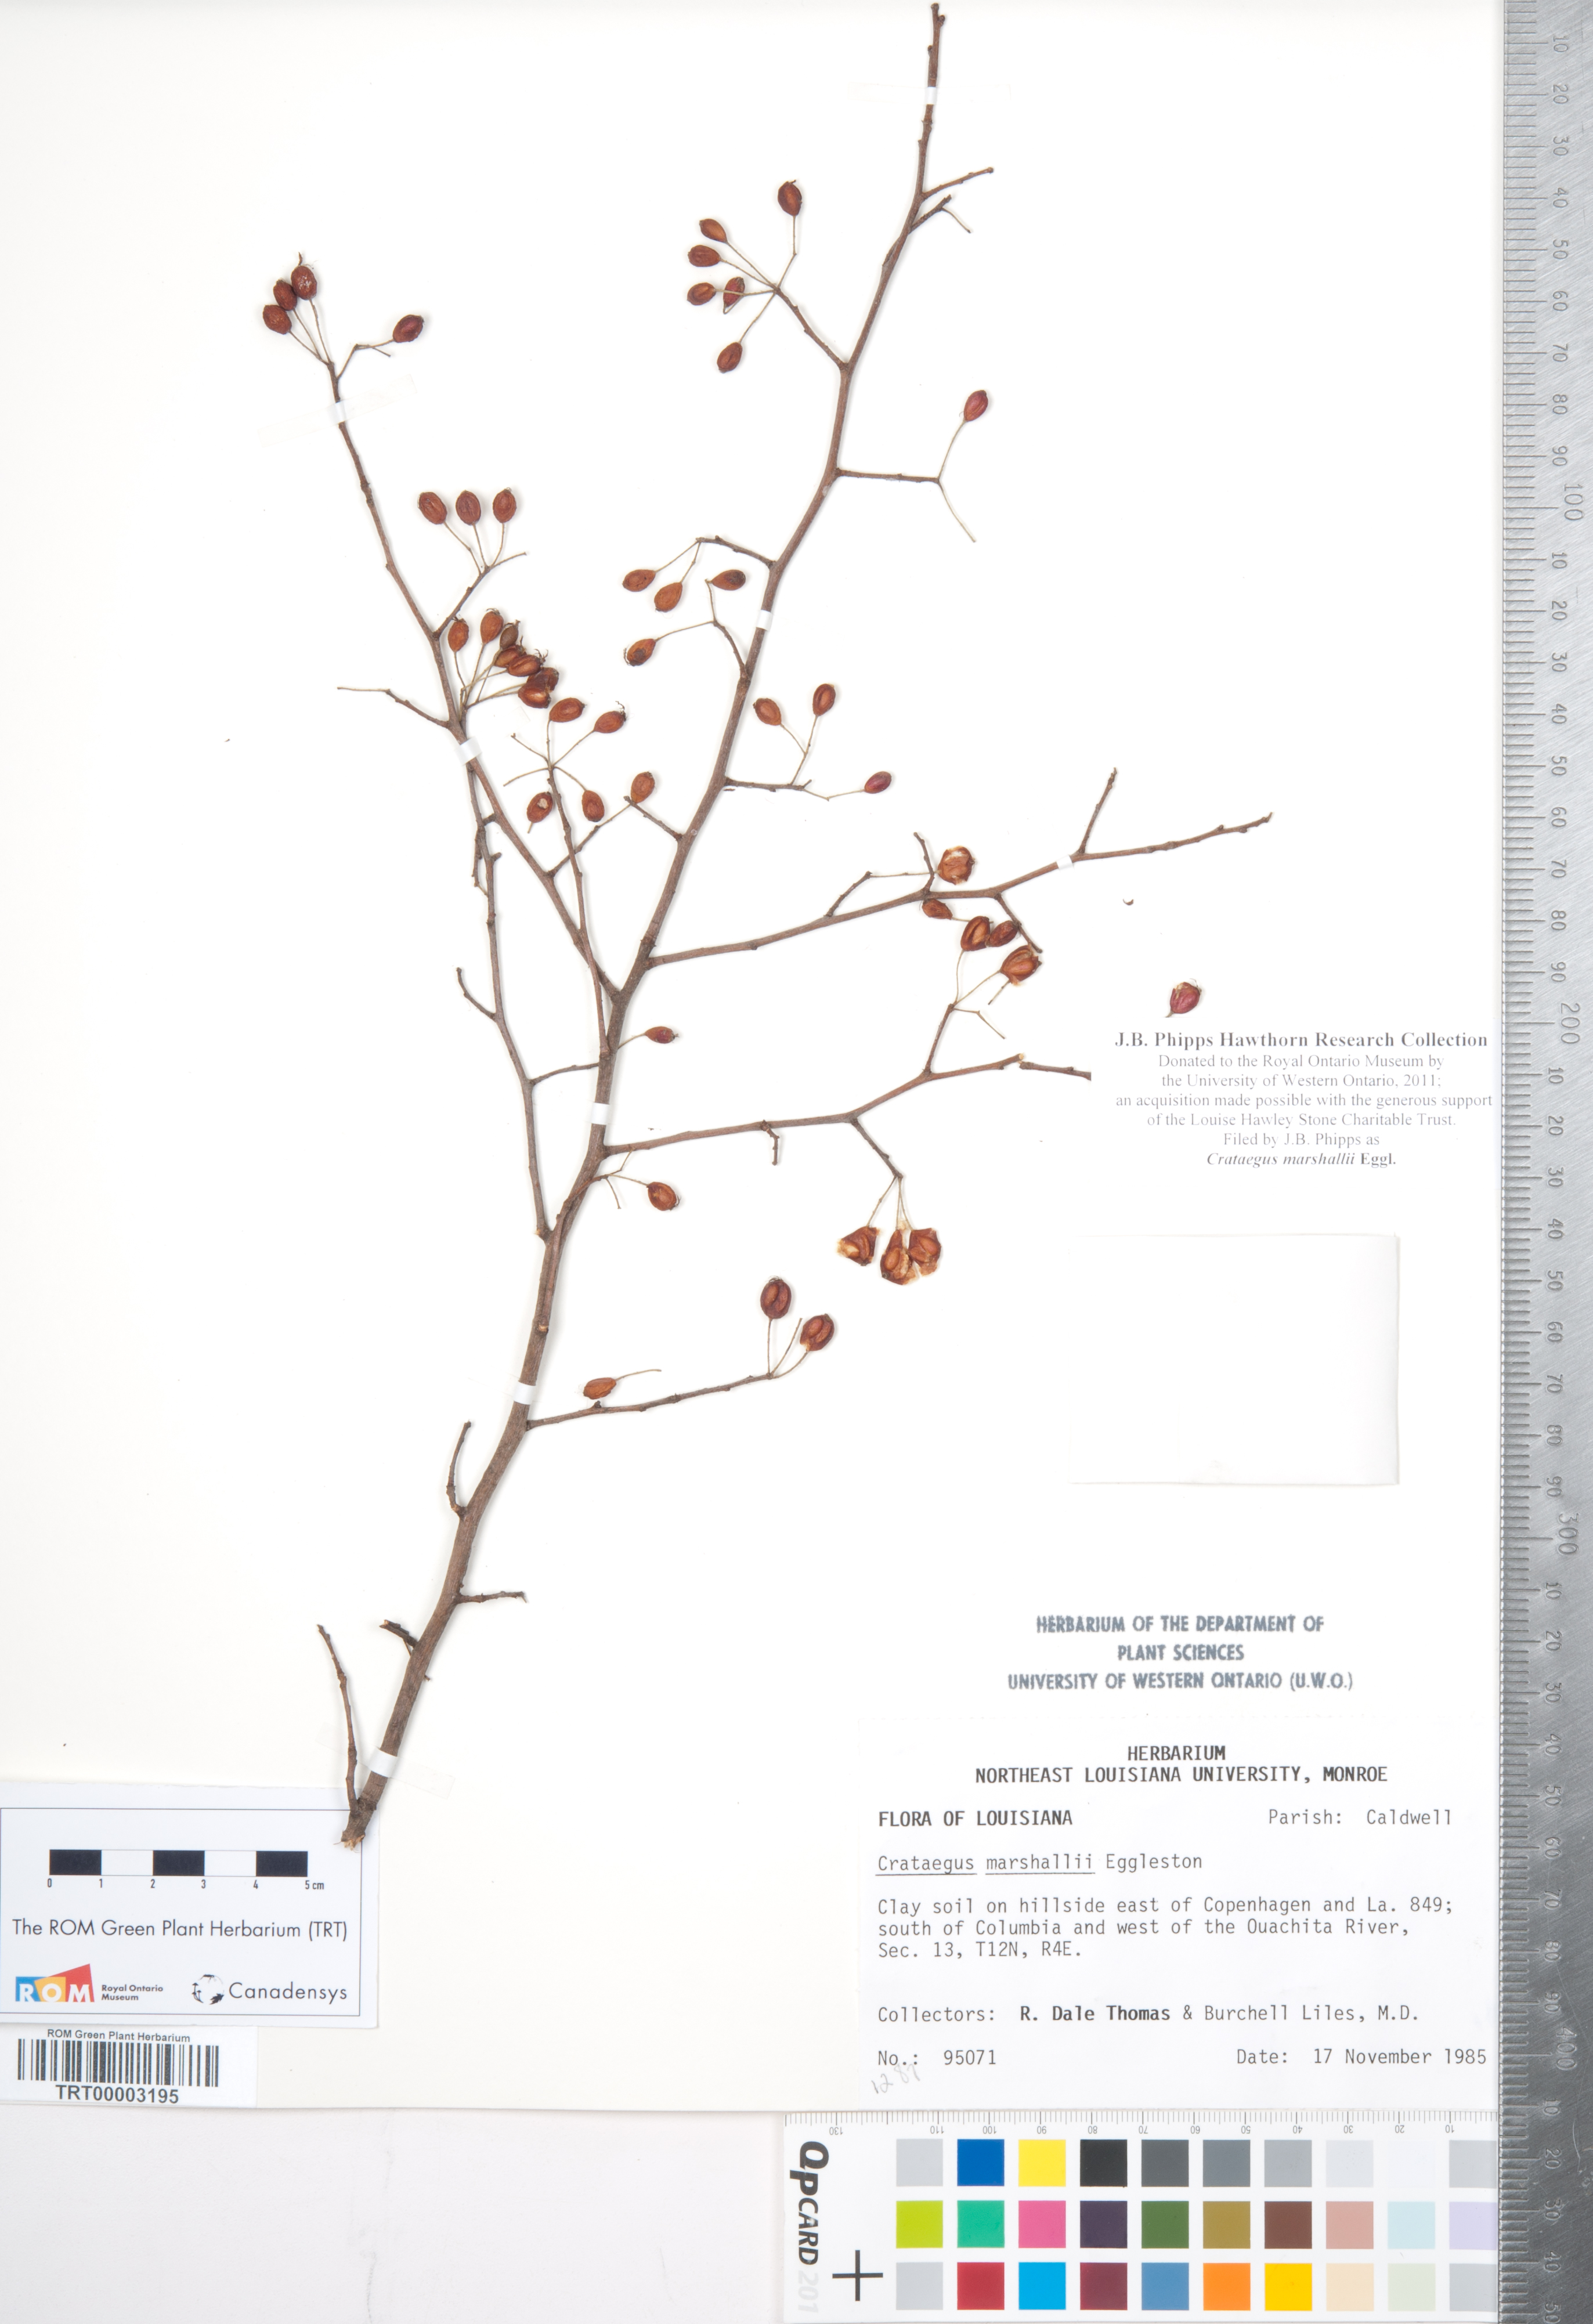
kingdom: Plantae
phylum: Tracheophyta
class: Magnoliopsida
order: Rosales
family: Rosaceae
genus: Crataegus
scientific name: Crataegus marshallii
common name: Parsley-hawthorn
